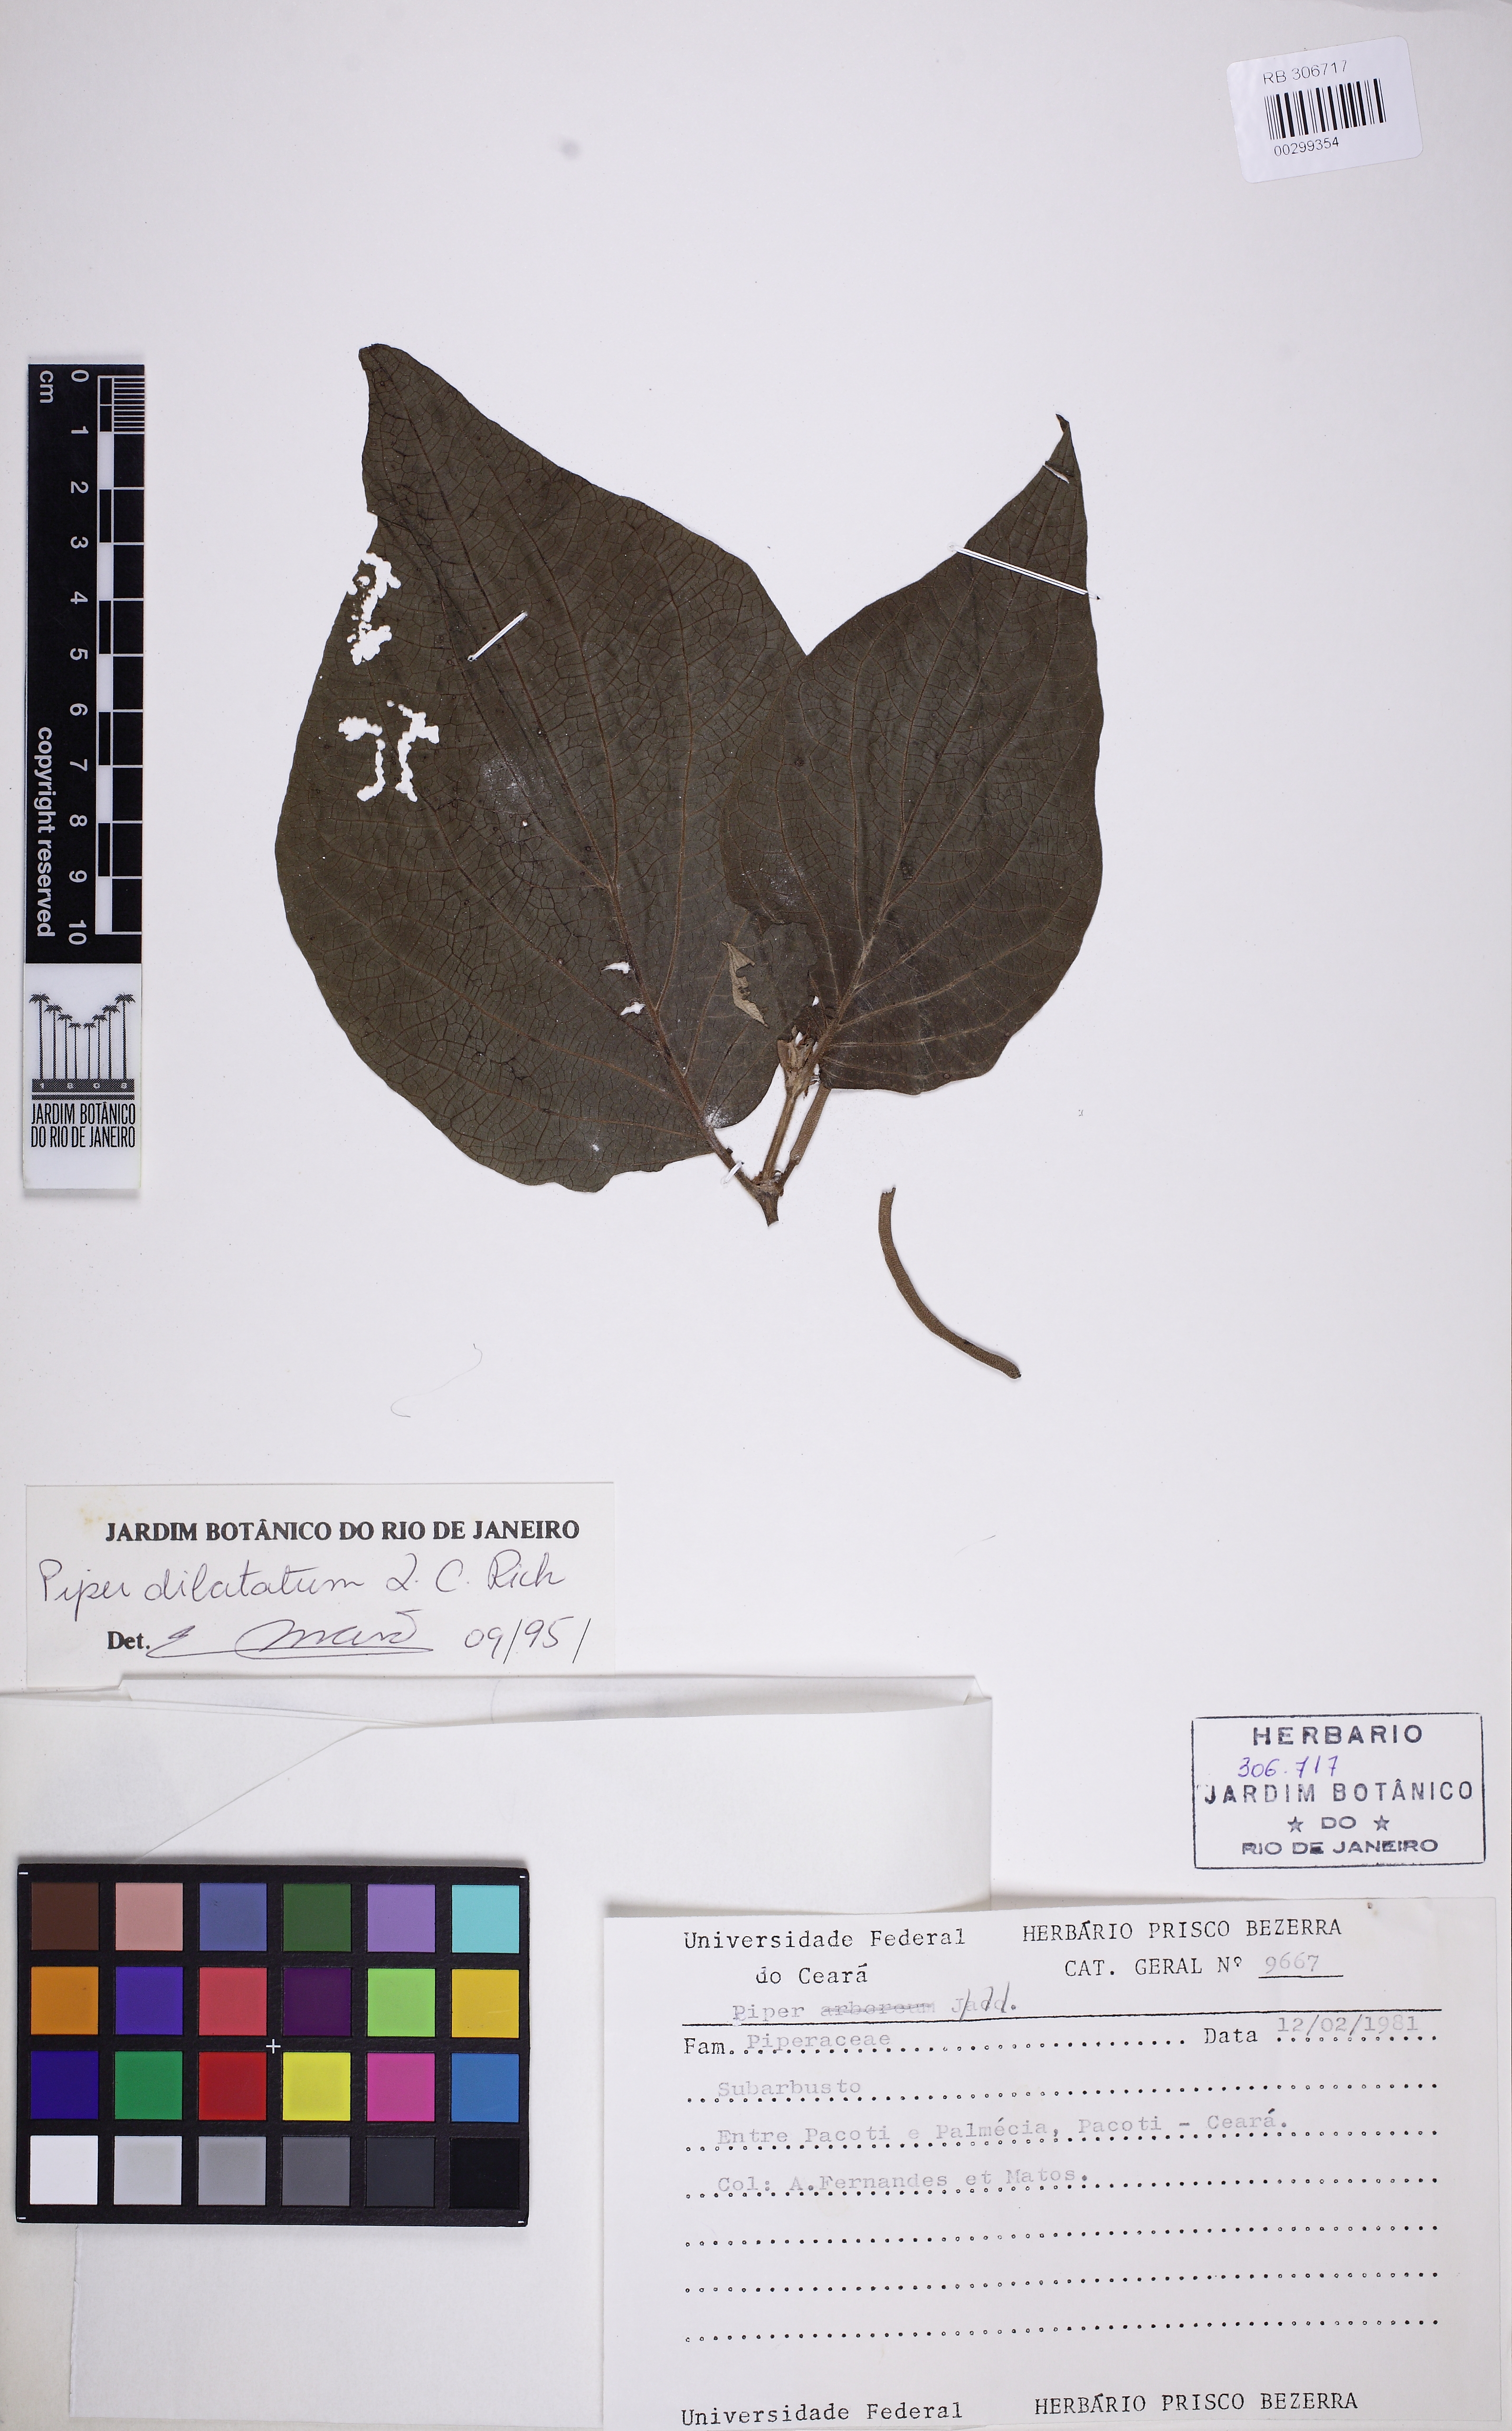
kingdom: Plantae
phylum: Tracheophyta
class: Magnoliopsida
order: Piperales
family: Piperaceae
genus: Piper
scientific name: Piper dilatatum
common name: Higuillo
